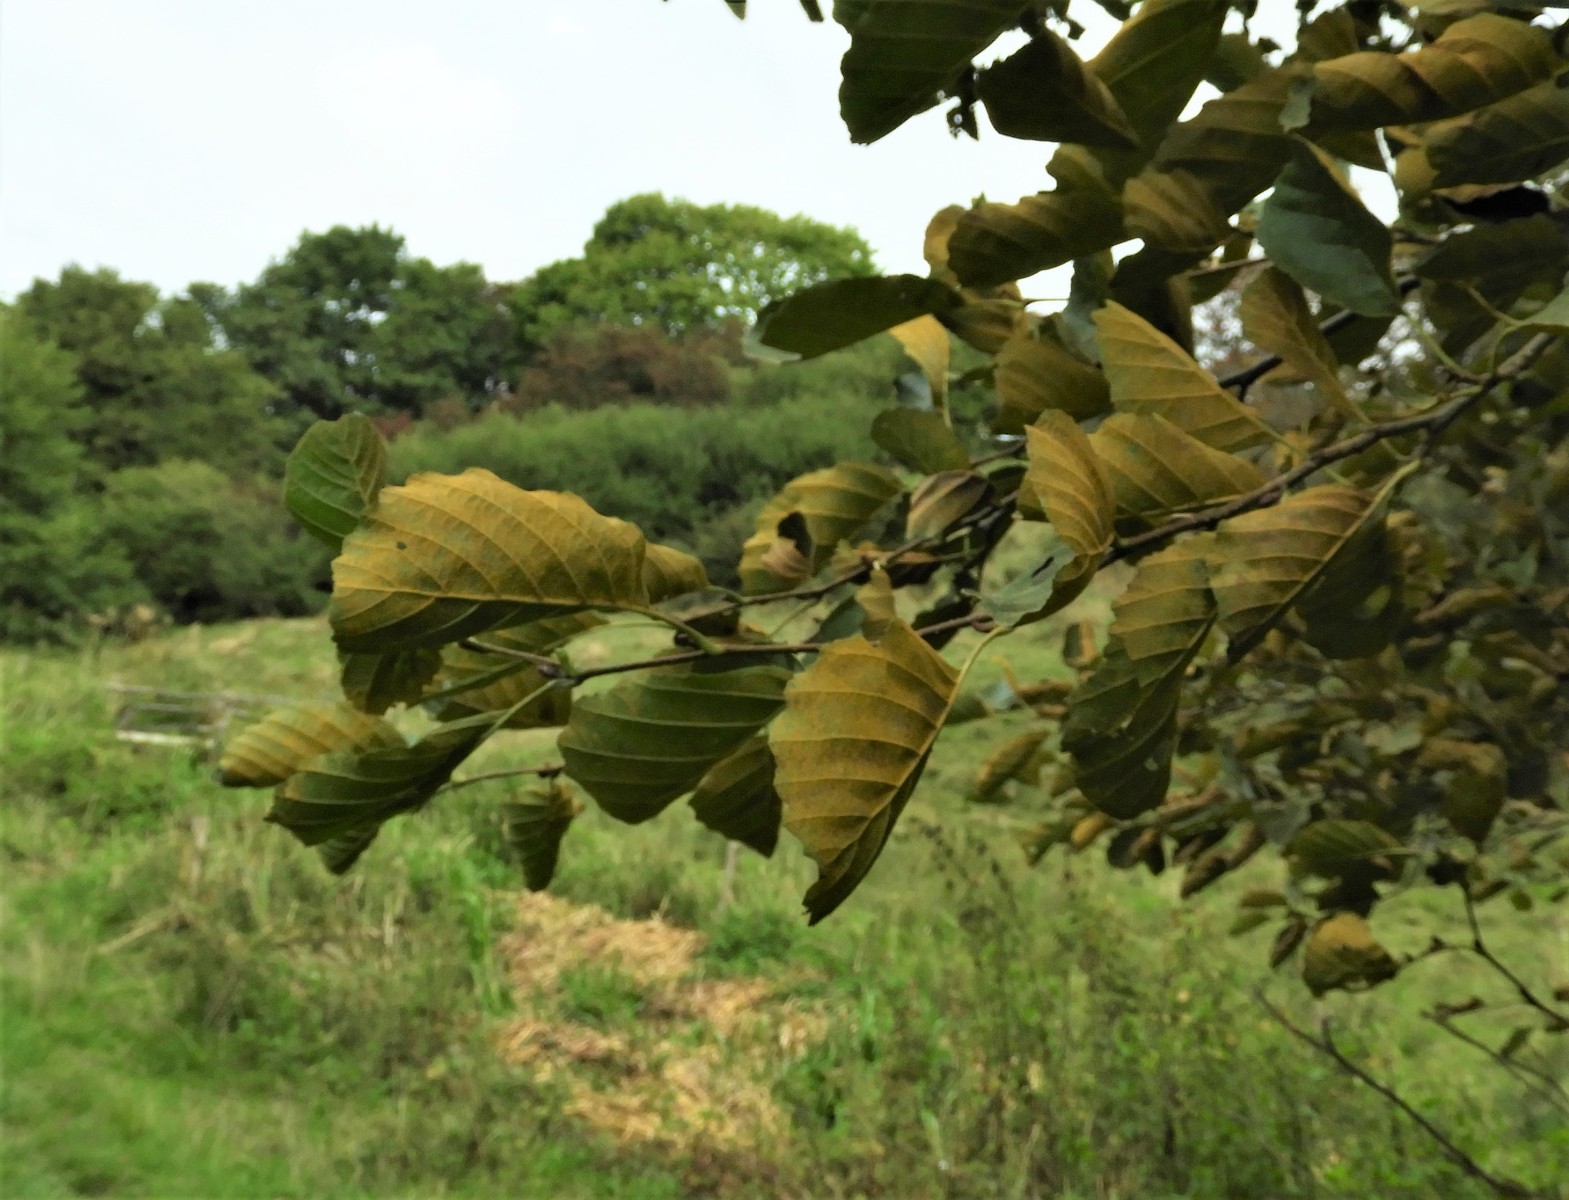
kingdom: Fungi
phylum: Basidiomycota
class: Pucciniomycetes
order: Pucciniales
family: Pucciniastraceae
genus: Melampsoridium
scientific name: Melampsoridium betulinum
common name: Birch rust
